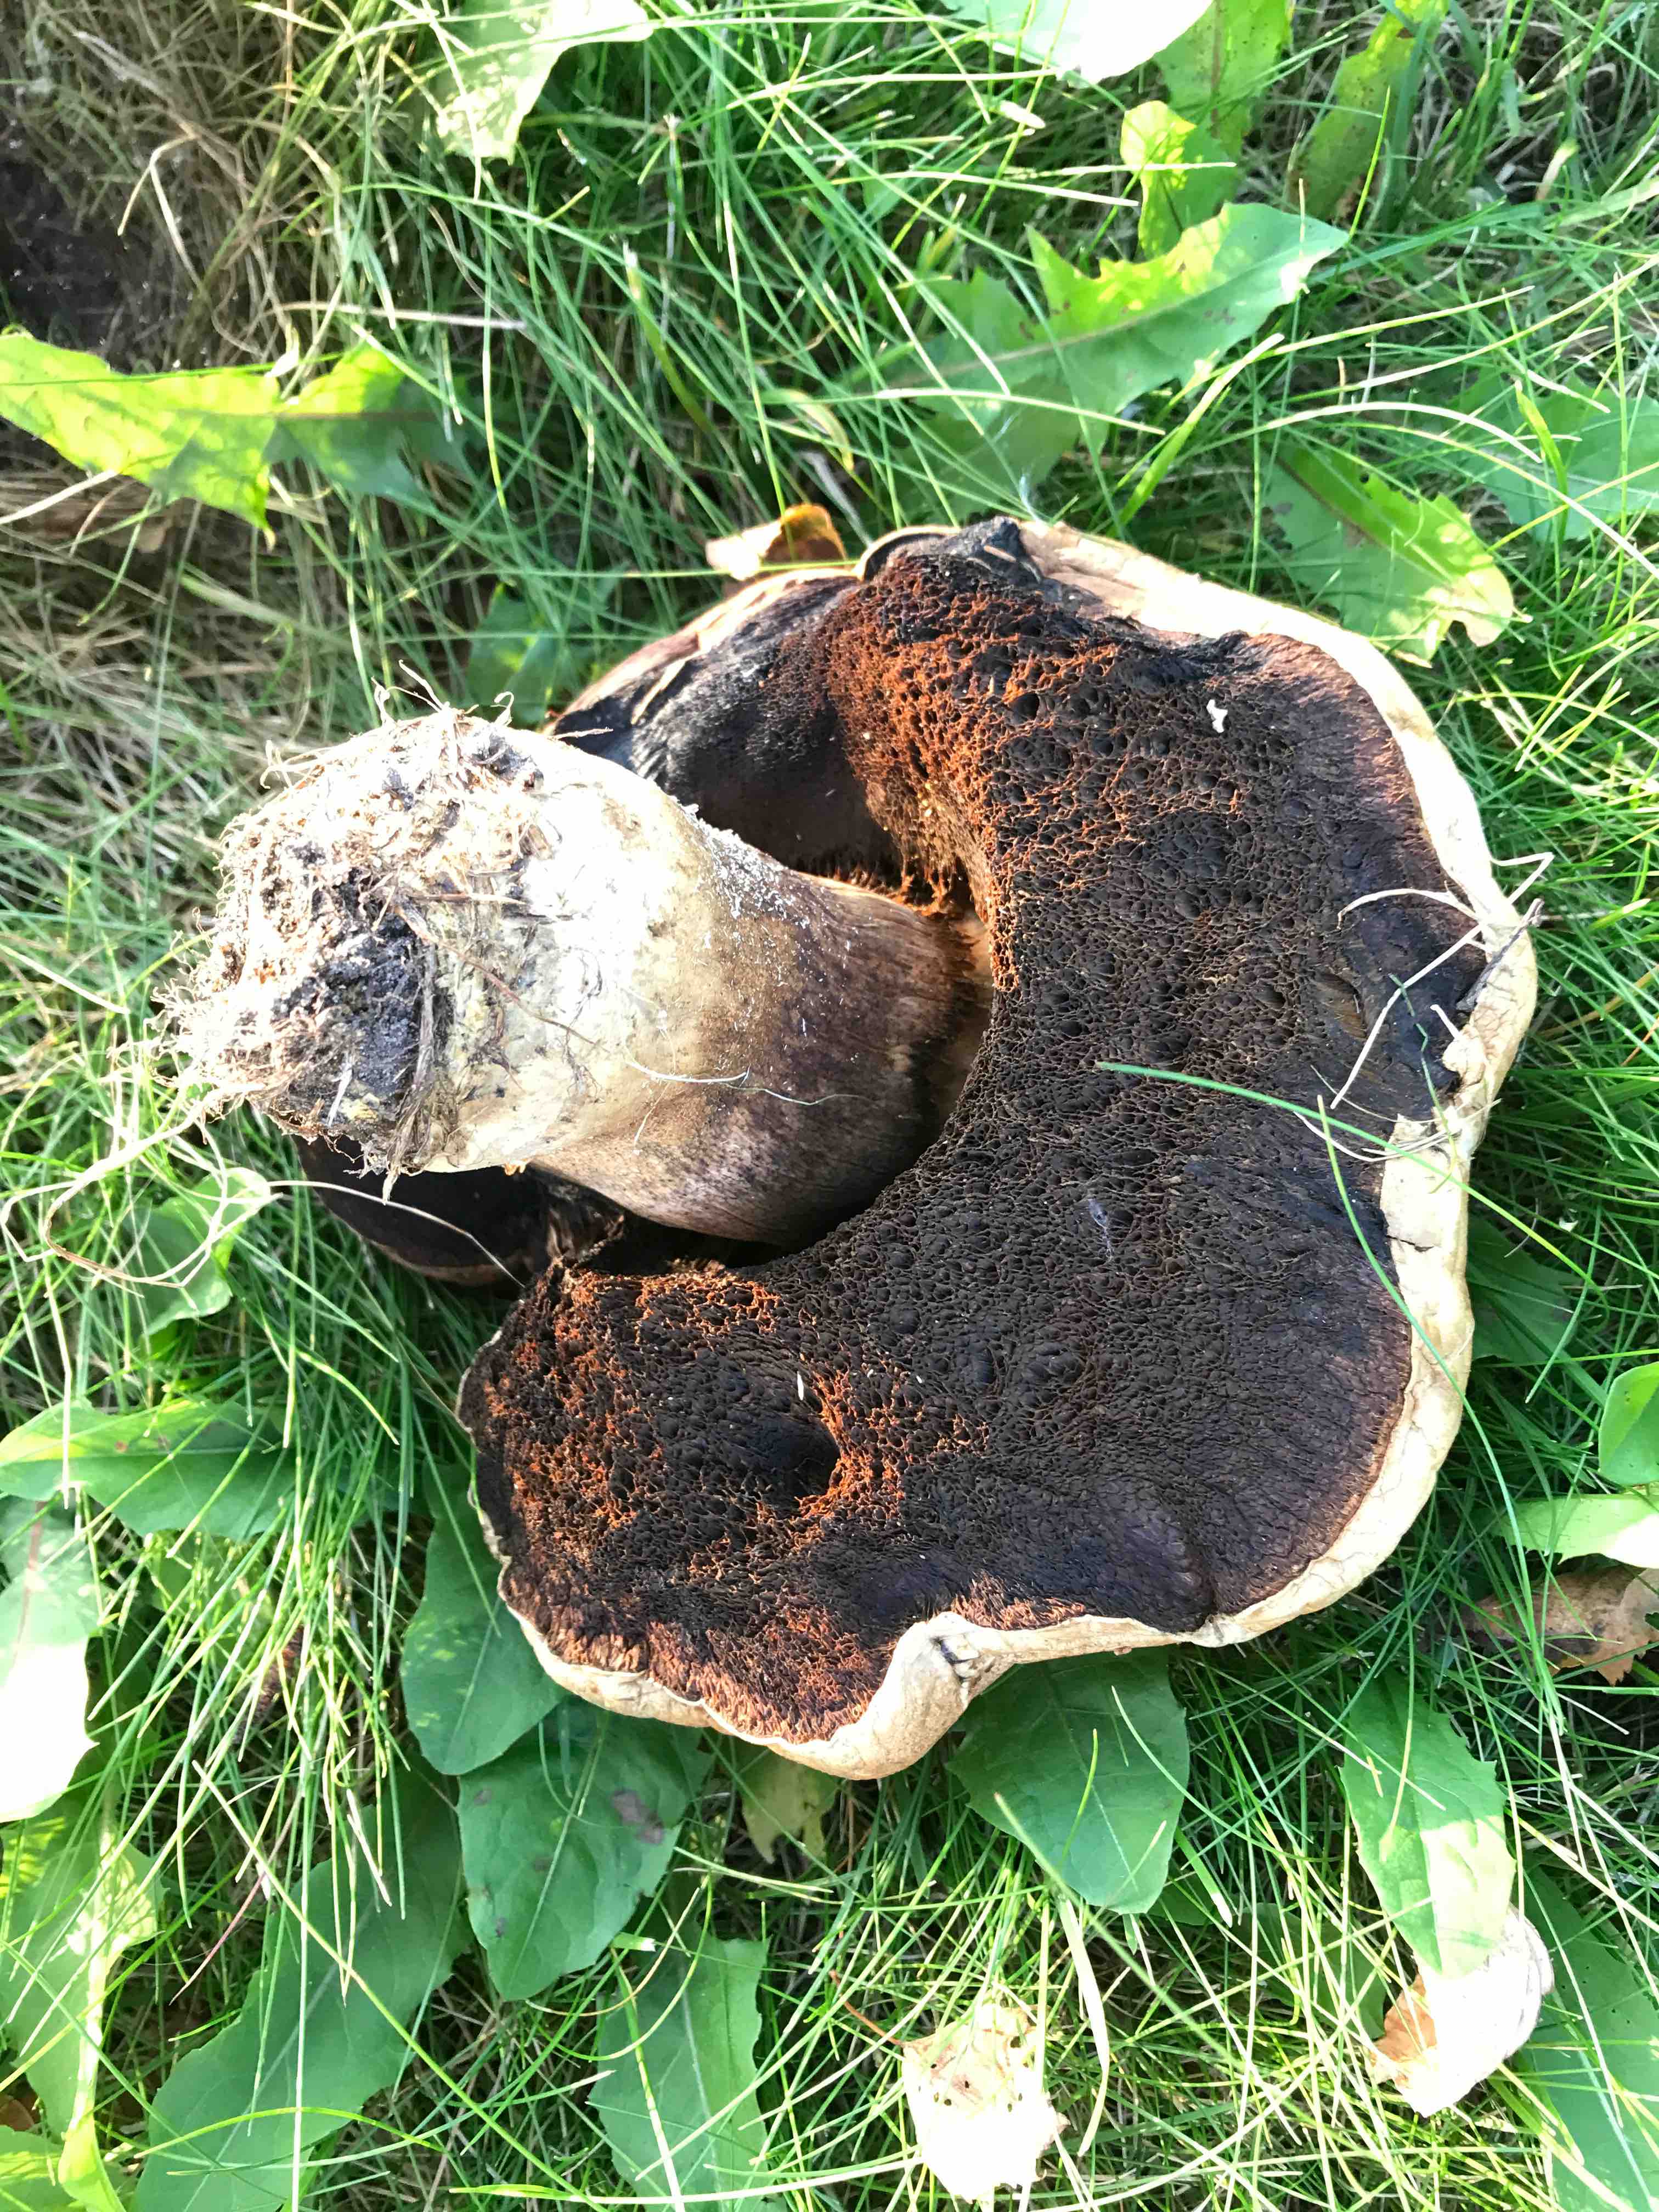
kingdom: Fungi
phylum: Basidiomycota
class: Agaricomycetes
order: Boletales
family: Boletaceae
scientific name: Boletaceae
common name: rørhatfamilien
